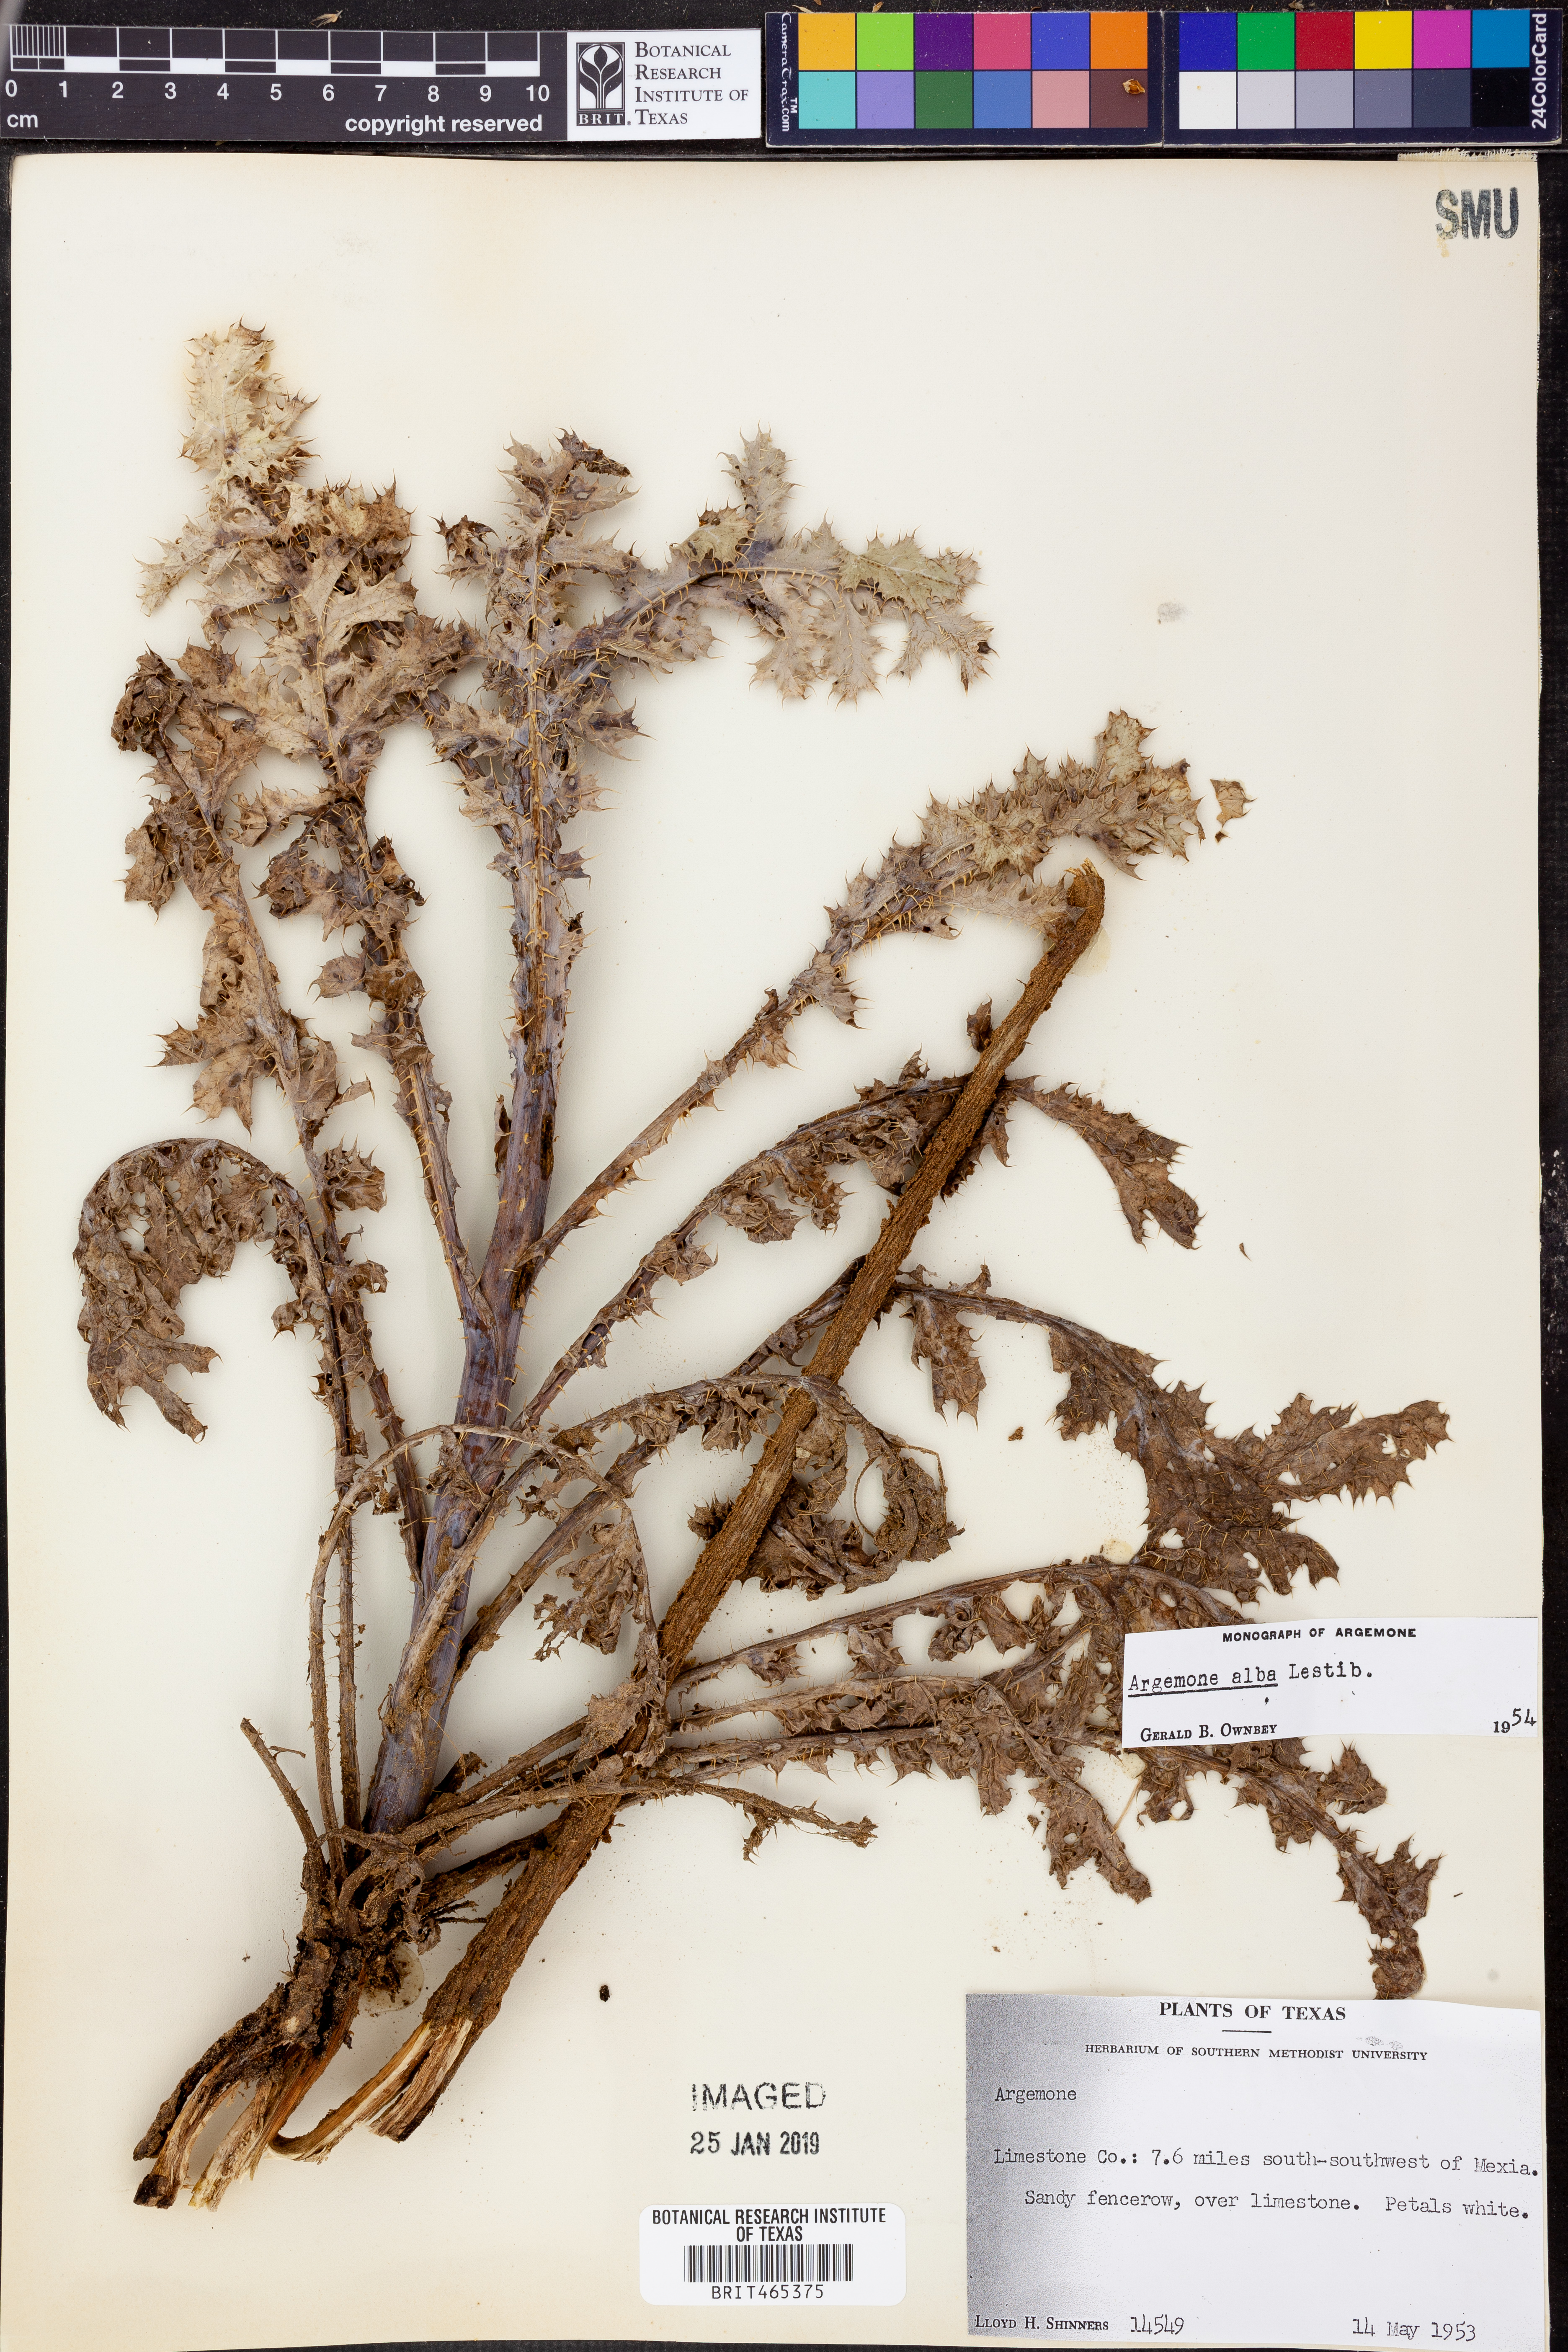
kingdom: Plantae
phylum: Tracheophyta
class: Magnoliopsida
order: Ranunculales
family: Papaveraceae
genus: Argemone
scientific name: Argemone albiflora
